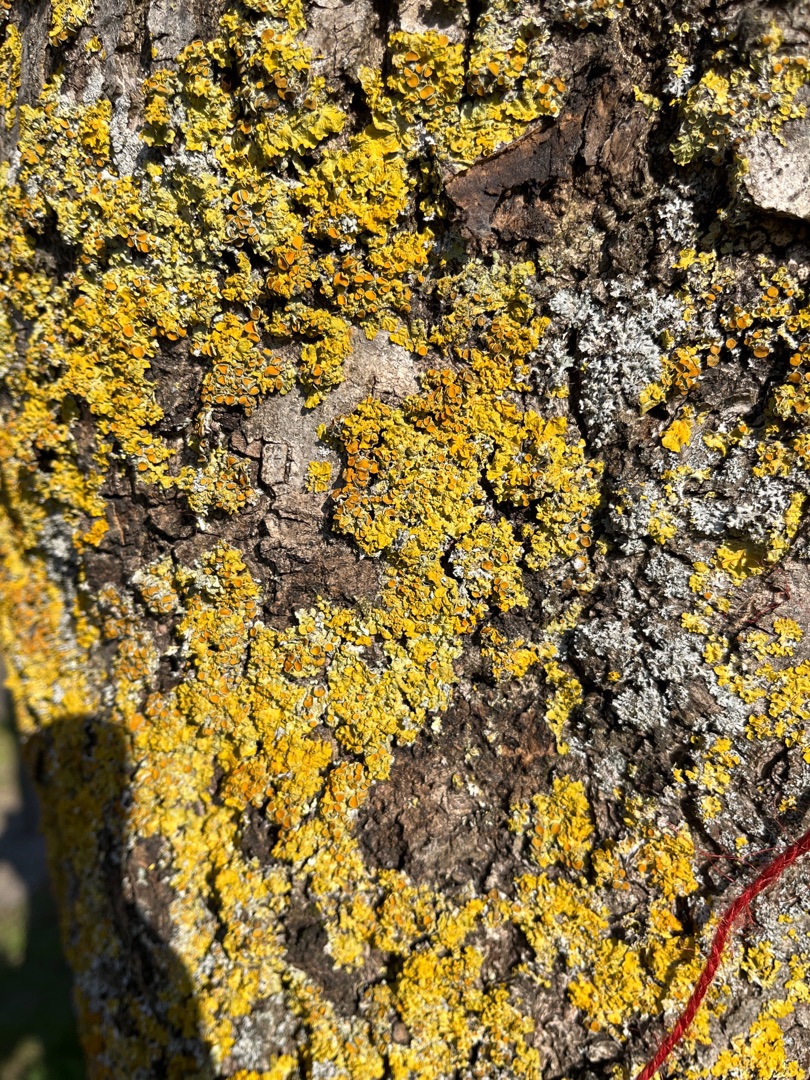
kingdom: Fungi
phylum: Ascomycota
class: Lecanoromycetes
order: Teloschistales
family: Teloschistaceae
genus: Xanthoria
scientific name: Xanthoria parietina
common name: Almindelig væggelav
